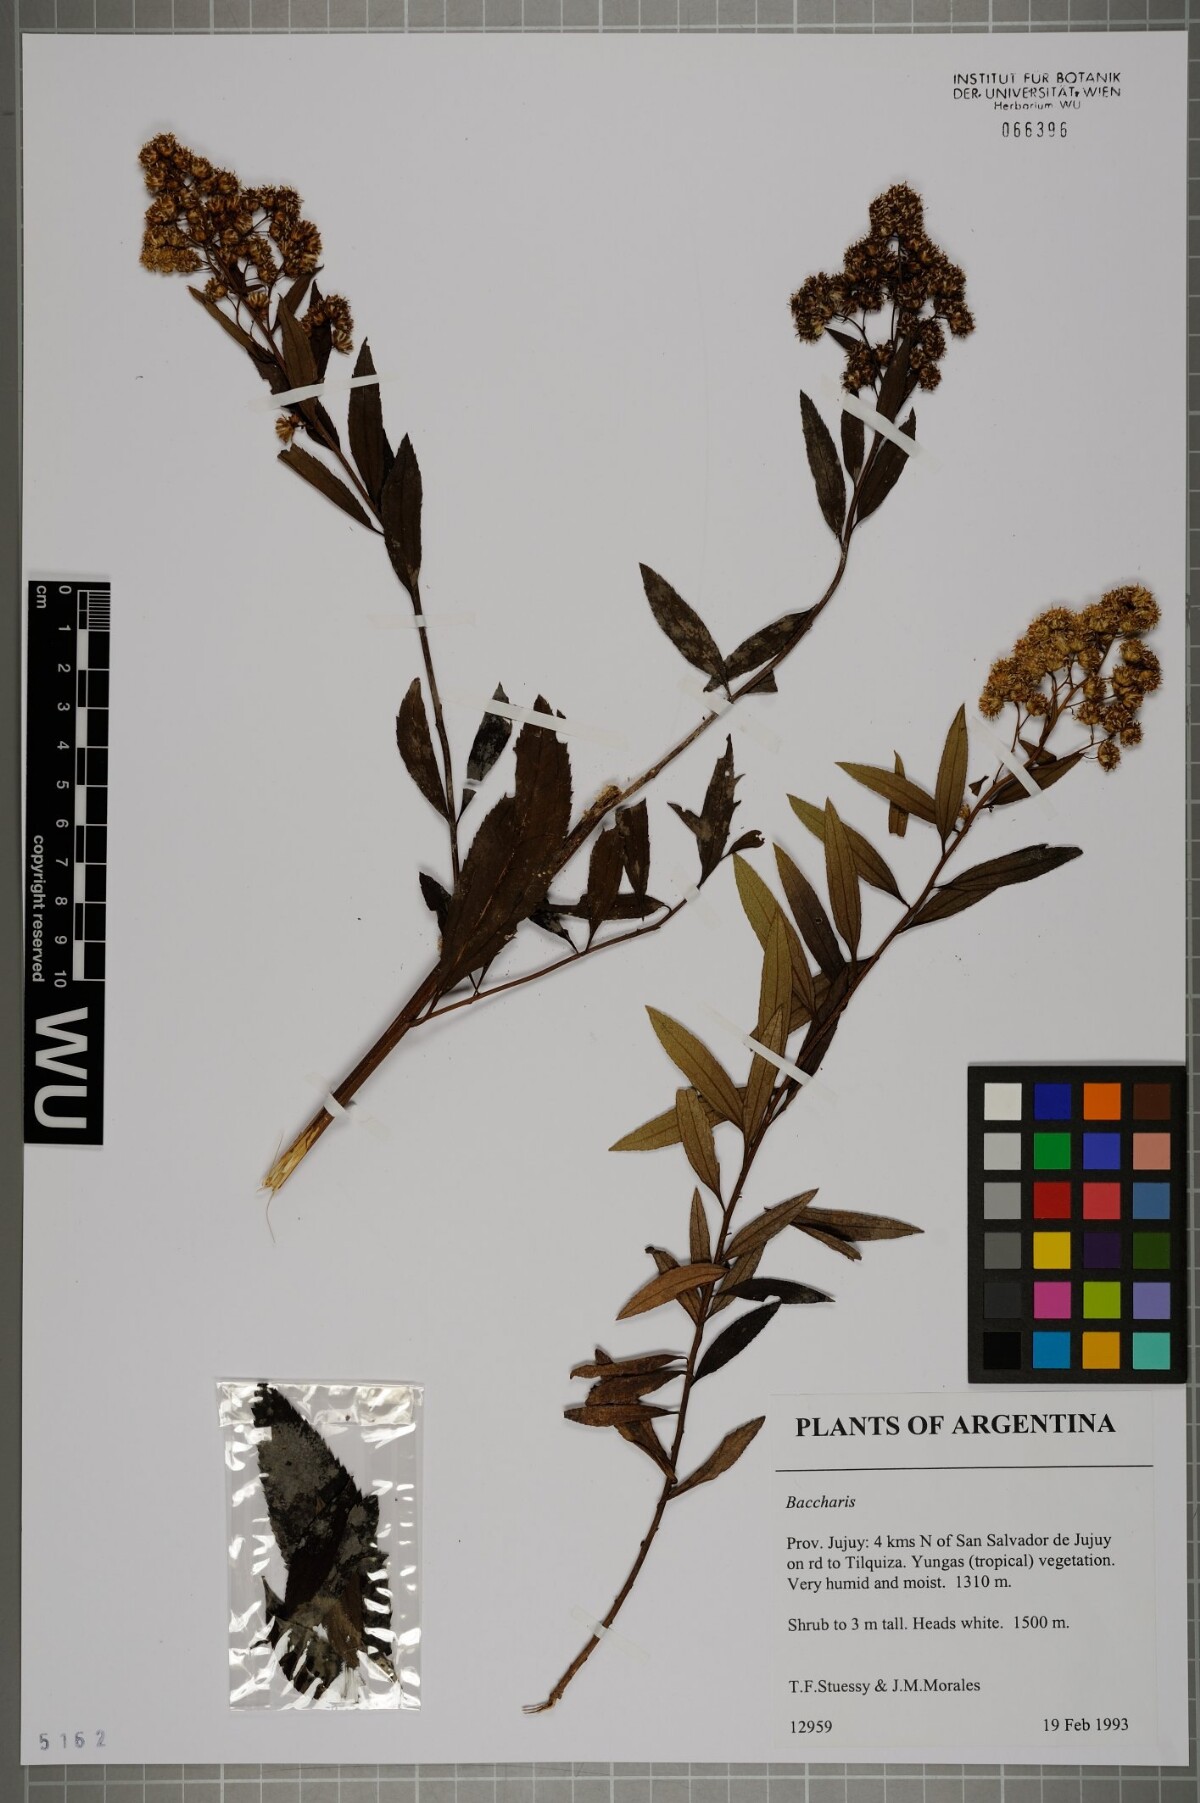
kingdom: Plantae
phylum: Tracheophyta
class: Magnoliopsida
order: Asterales
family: Asteraceae
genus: Baccharis
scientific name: Baccharis
